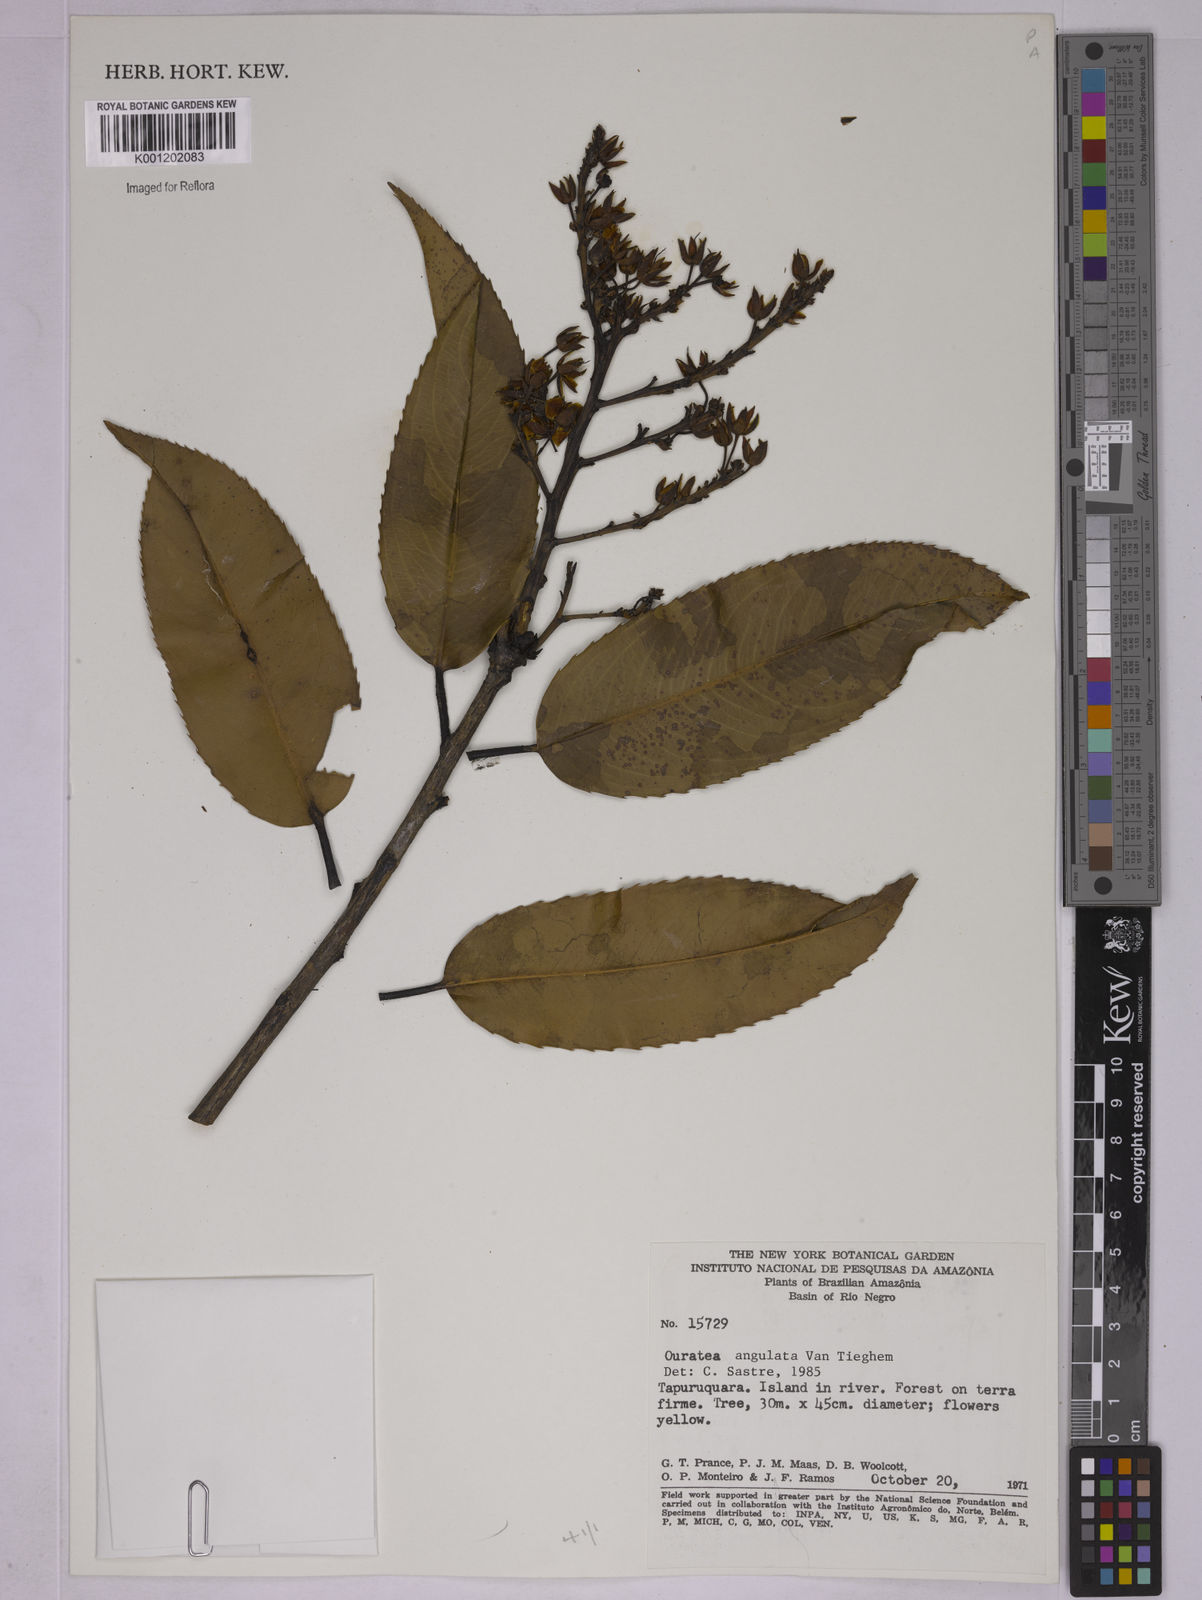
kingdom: Plantae
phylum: Tracheophyta
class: Magnoliopsida
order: Malpighiales
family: Ochnaceae
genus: Gomphia
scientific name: Gomphia obtusifolia
